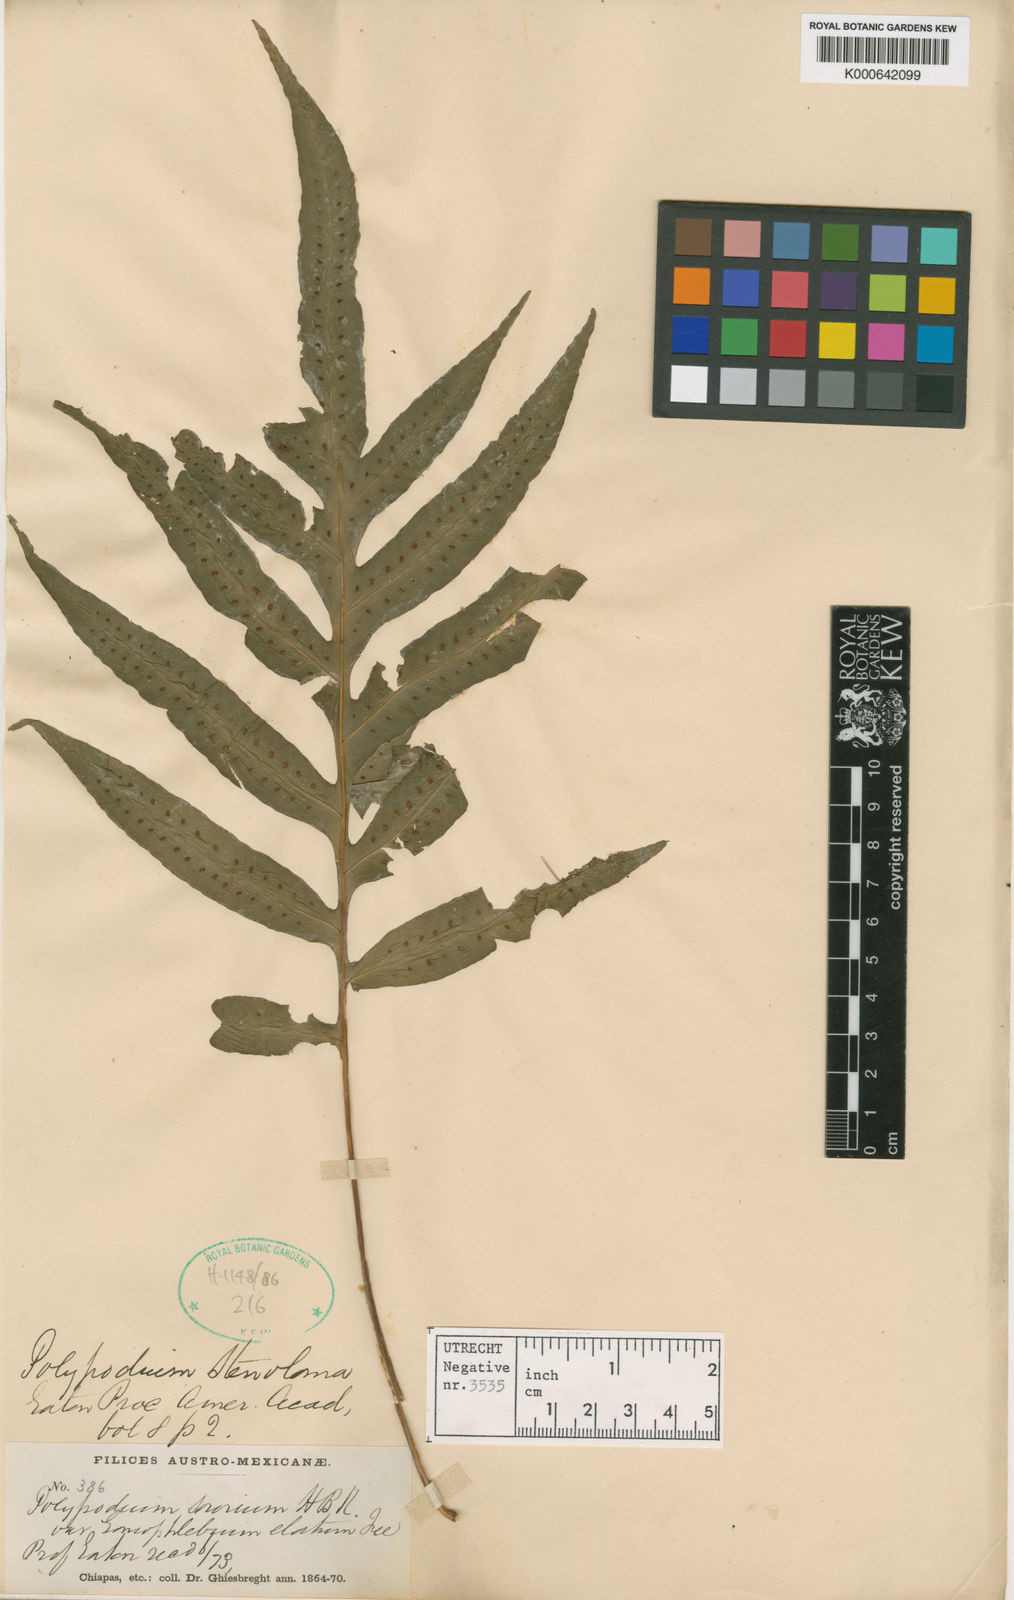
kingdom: Plantae
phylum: Tracheophyta
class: Polypodiopsida
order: Polypodiales
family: Polypodiaceae
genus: Pecluma
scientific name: Pecluma rhachipterygia
